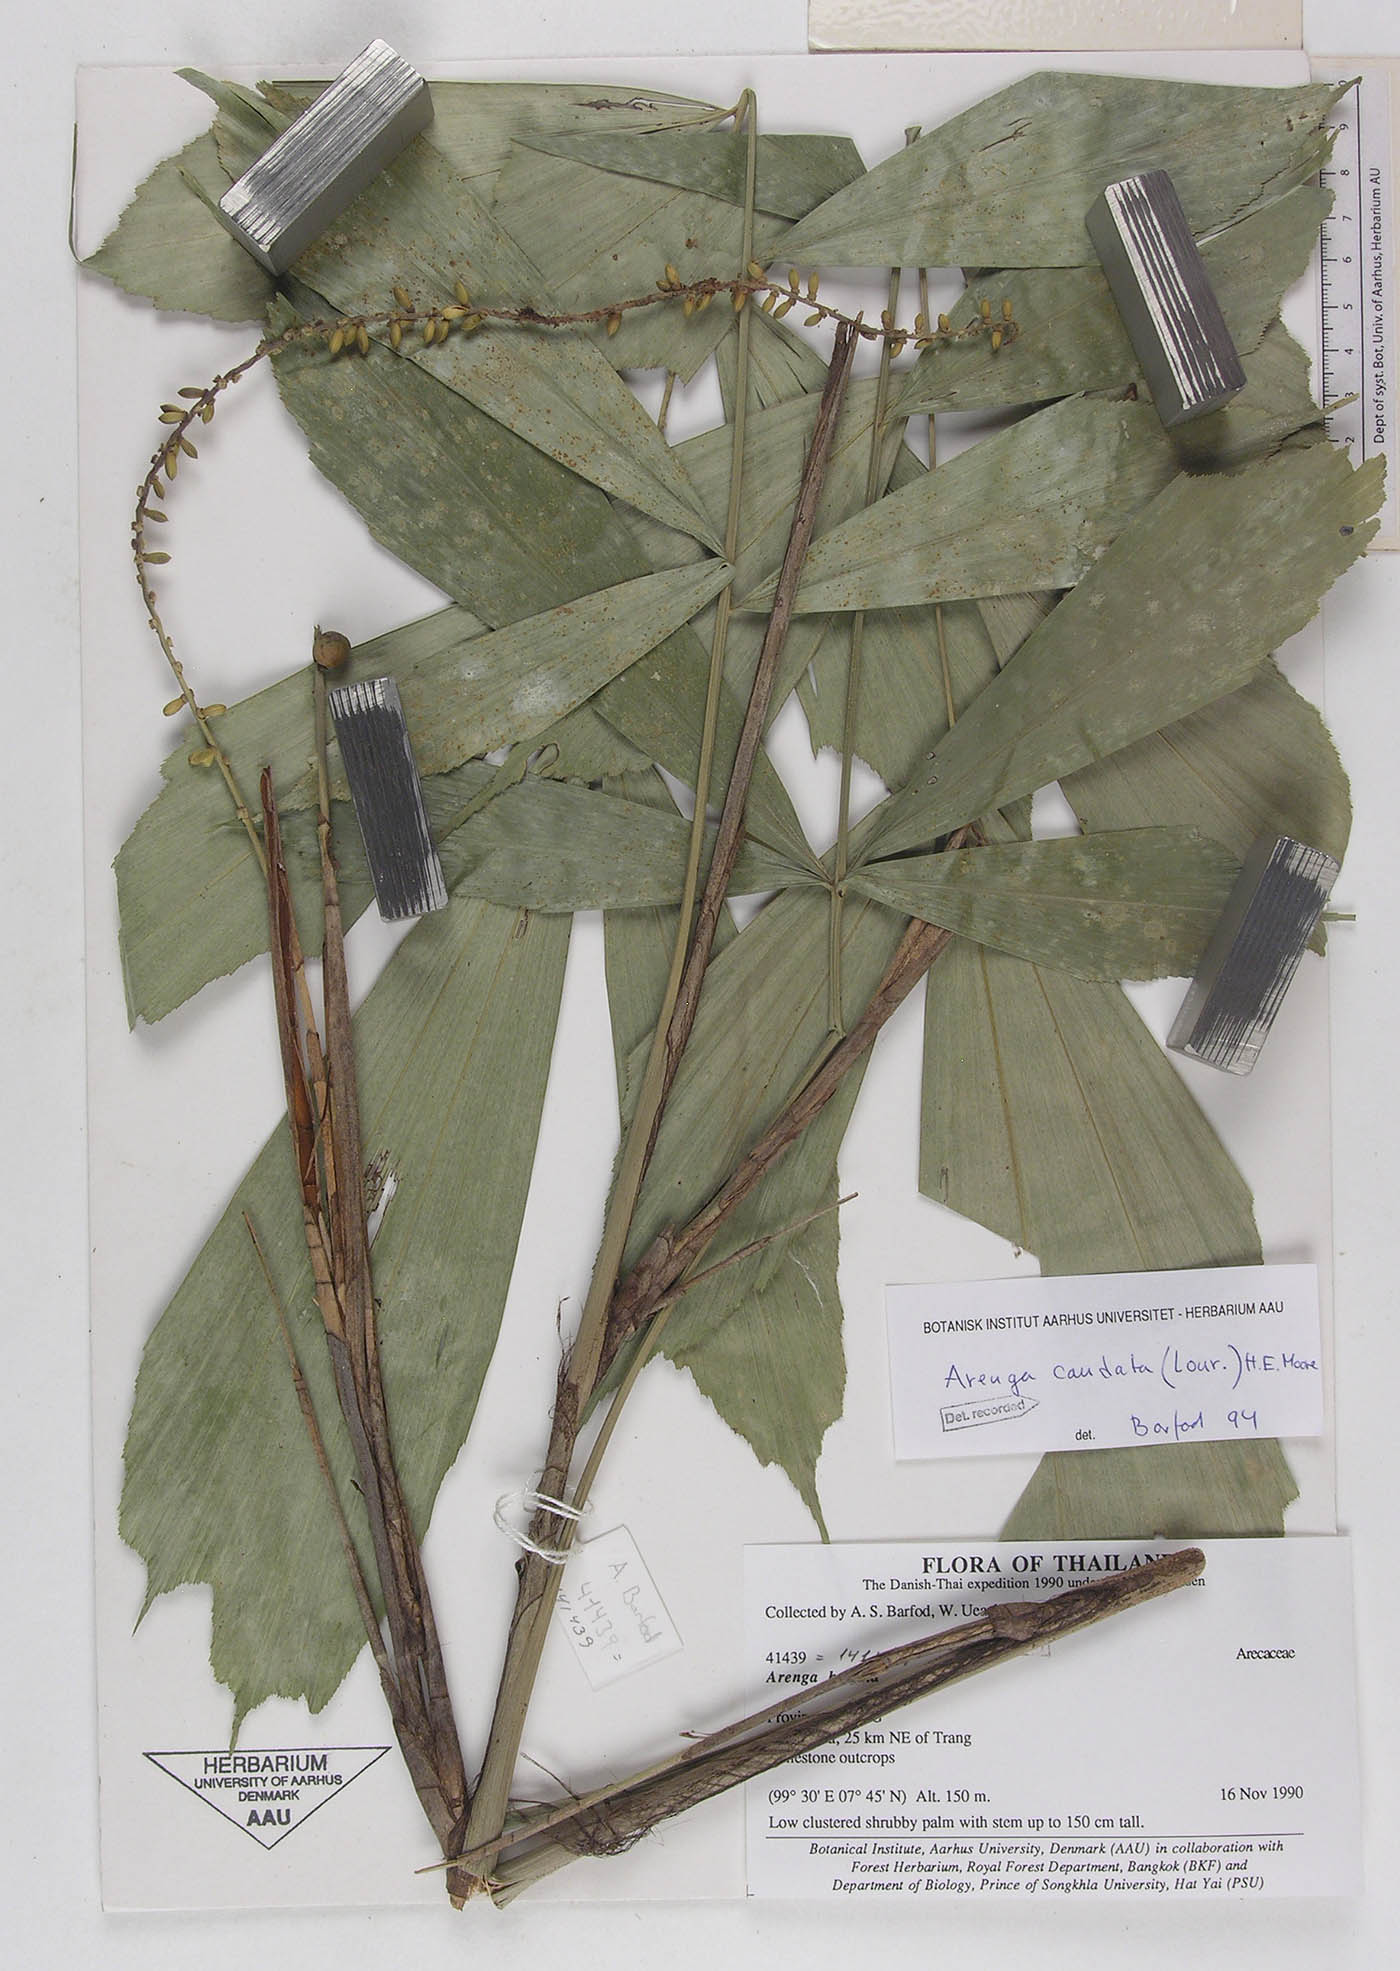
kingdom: Plantae
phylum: Tracheophyta
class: Liliopsida
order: Arecales
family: Arecaceae
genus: Arenga
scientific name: Arenga caudata
